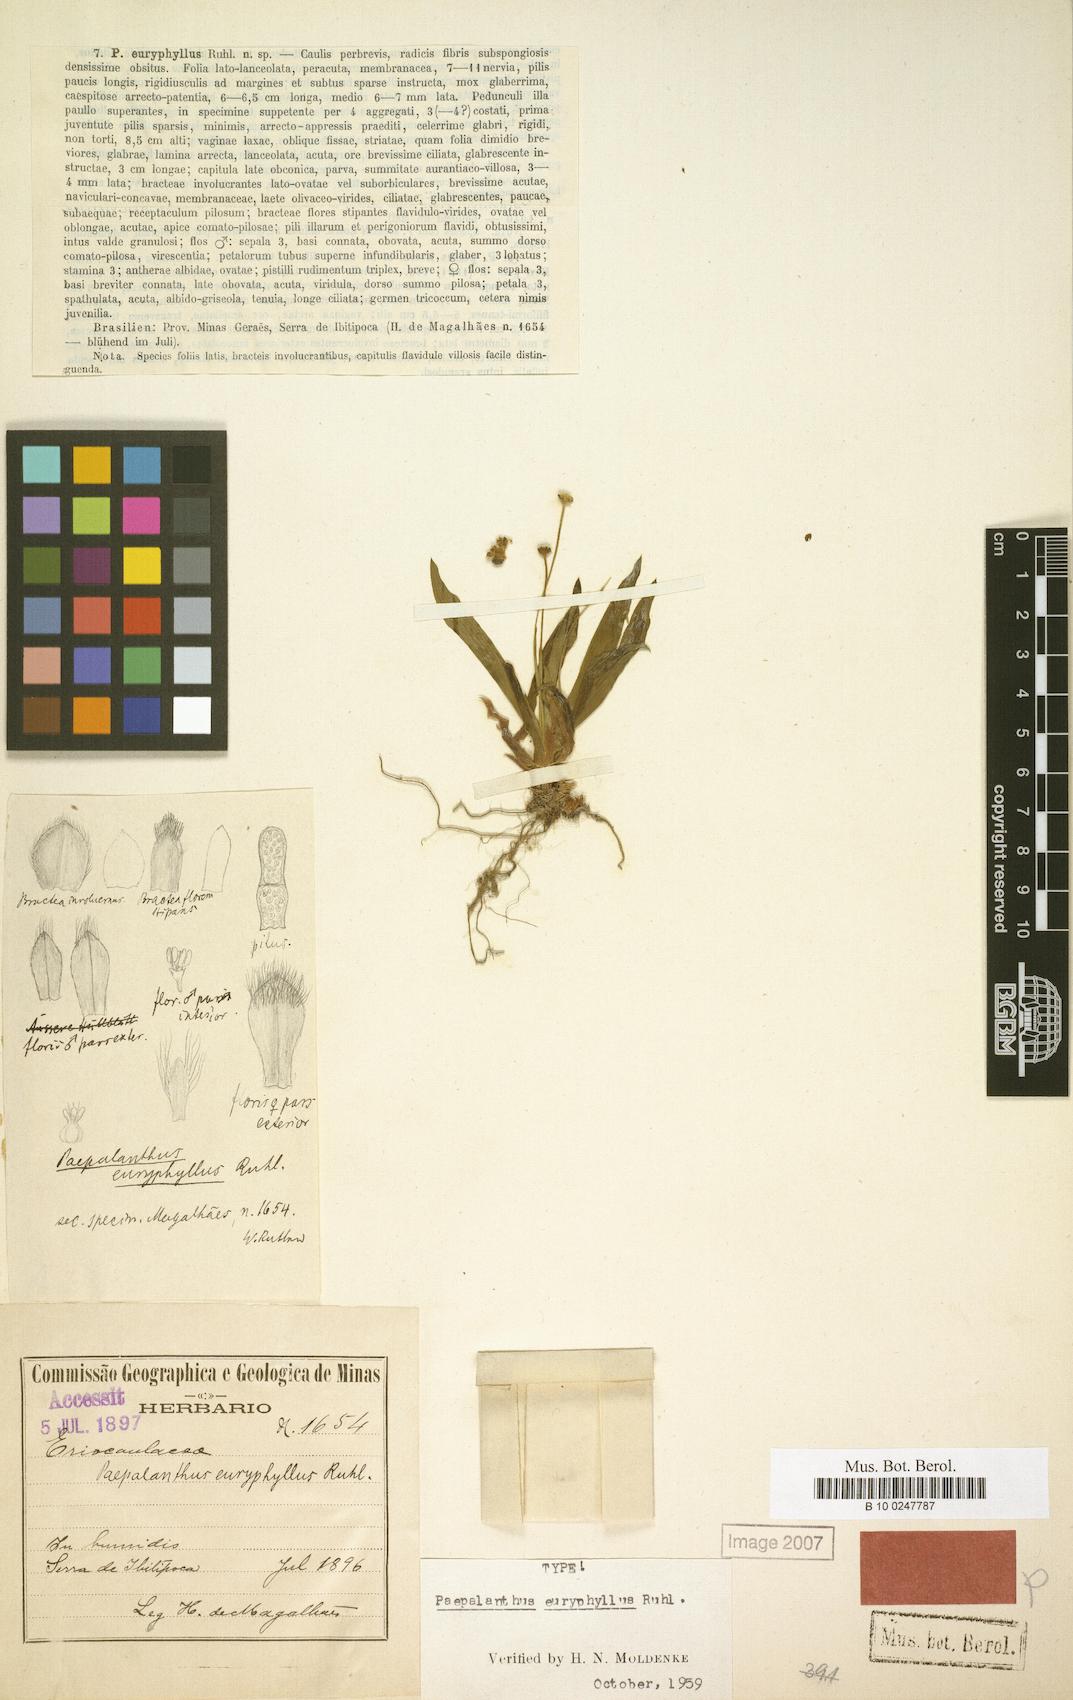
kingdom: Plantae
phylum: Tracheophyta
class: Liliopsida
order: Poales
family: Eriocaulaceae
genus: Paepalanthus
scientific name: Paepalanthus macaheensis
